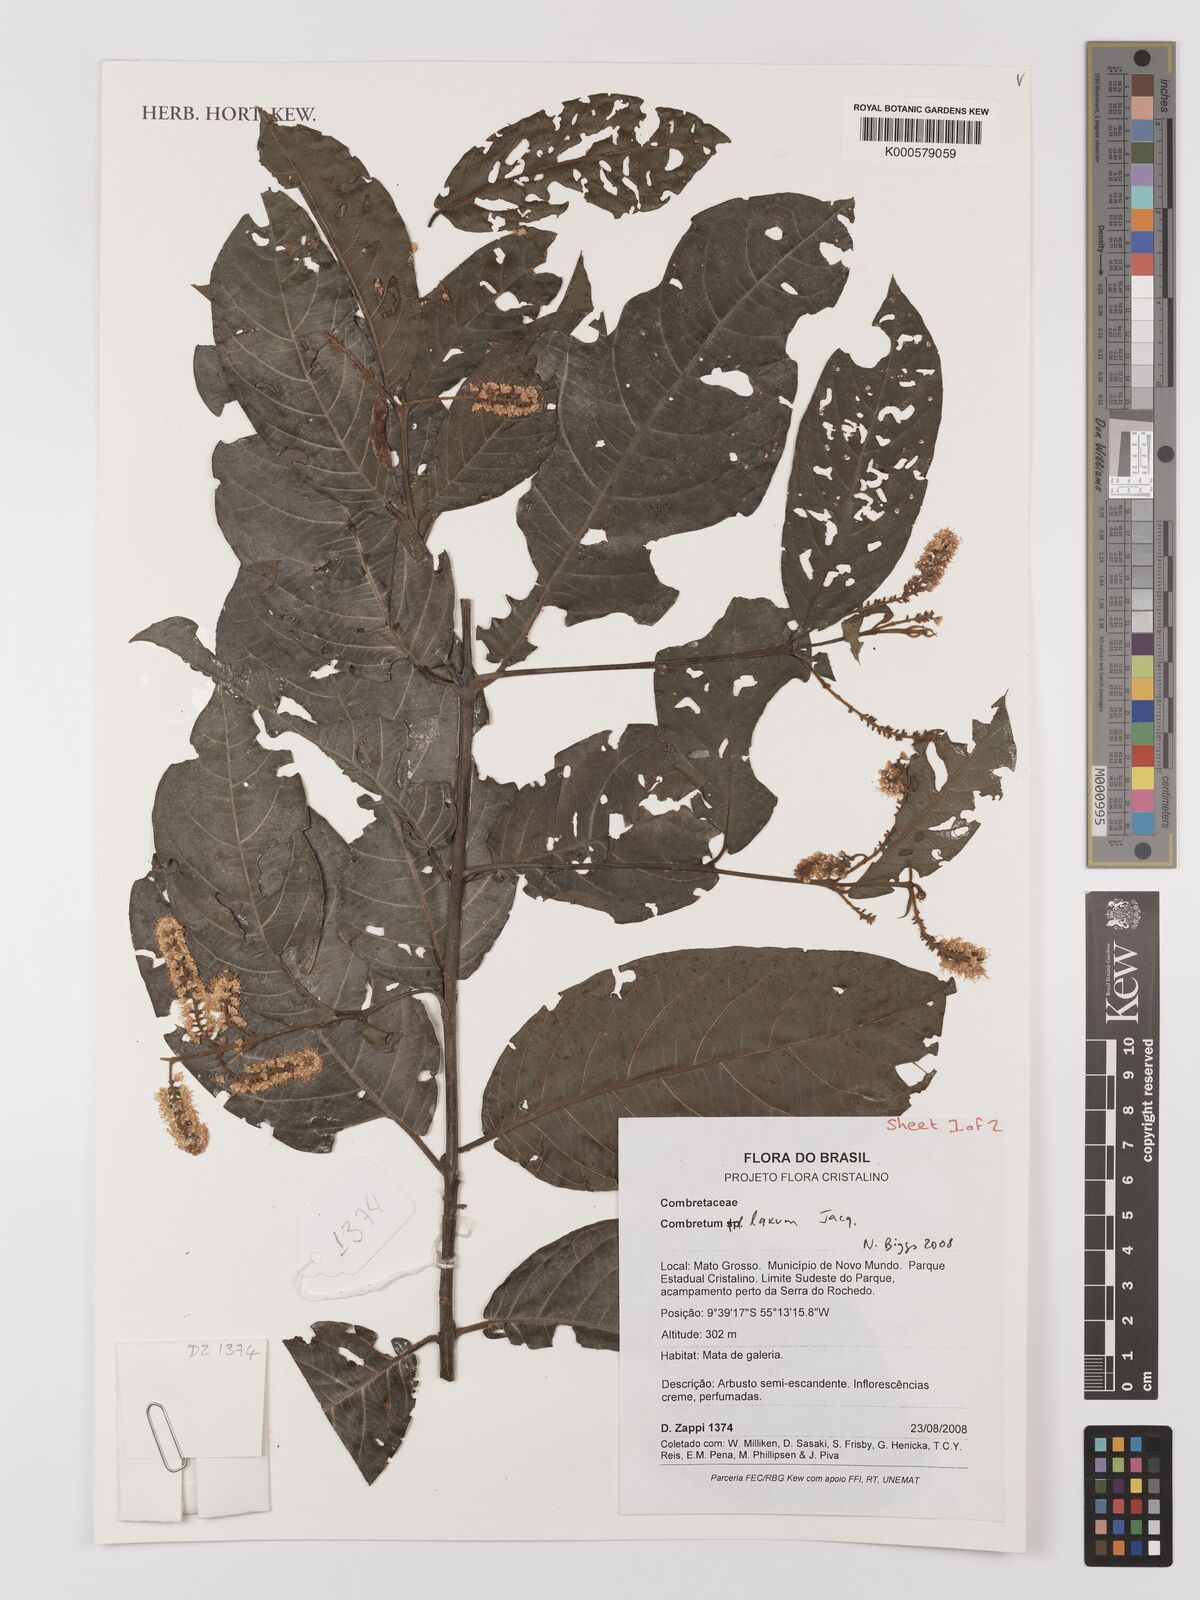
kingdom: Plantae
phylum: Tracheophyta
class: Magnoliopsida
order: Myrtales
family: Combretaceae
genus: Combretum
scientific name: Combretum laxum
